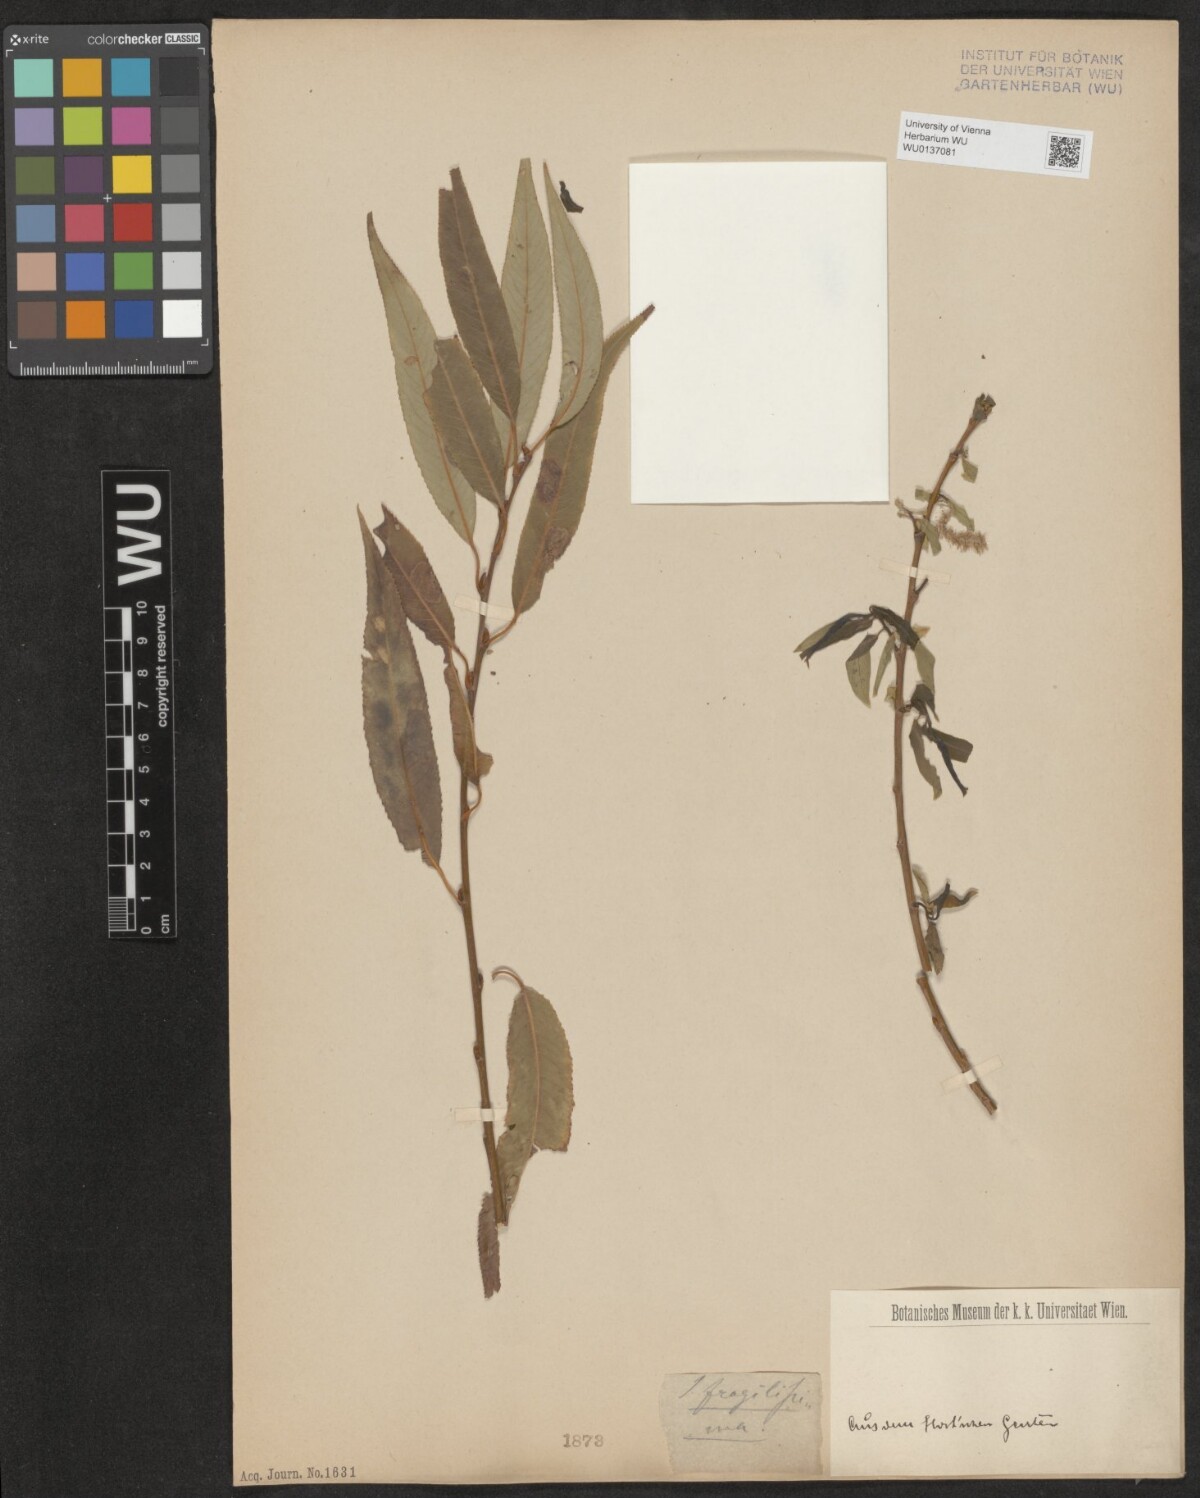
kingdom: Plantae
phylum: Tracheophyta
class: Magnoliopsida
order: Malpighiales
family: Salicaceae
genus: Salix
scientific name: Salix fragilis
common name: Crack willow
